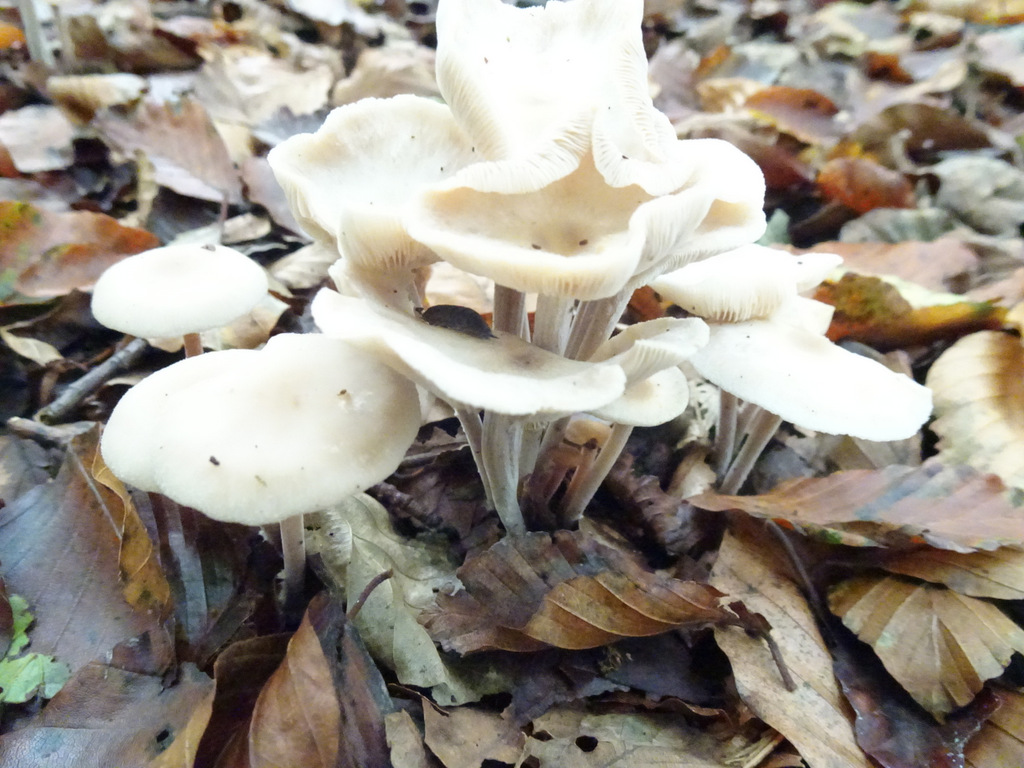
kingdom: Fungi
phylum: Basidiomycota
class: Agaricomycetes
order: Agaricales
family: Omphalotaceae
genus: Collybiopsis
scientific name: Collybiopsis confluens
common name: knippe-fladhat
